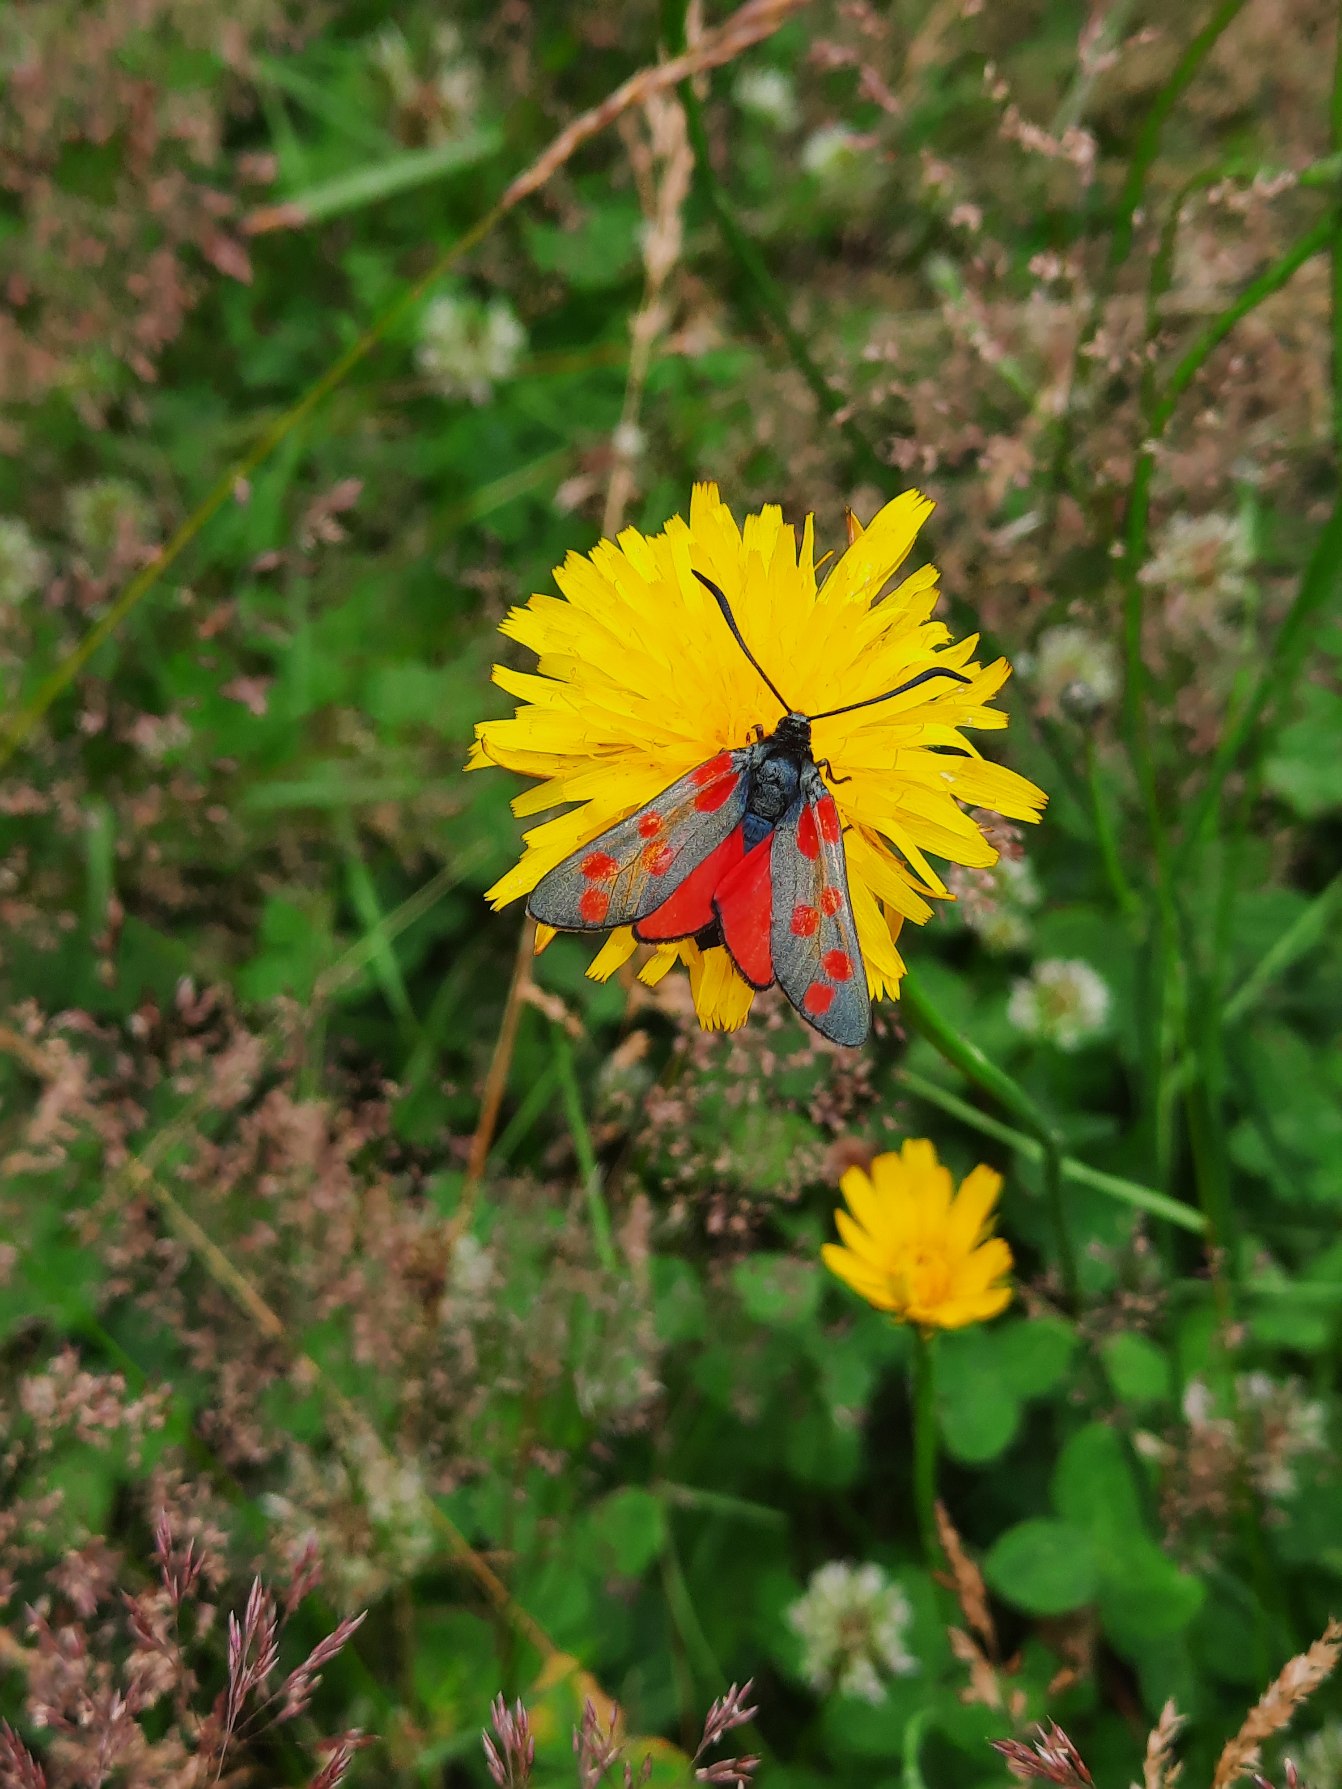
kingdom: Animalia
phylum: Arthropoda
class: Insecta
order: Lepidoptera
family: Zygaenidae
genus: Zygaena
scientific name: Zygaena filipendulae
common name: Seksplettet køllesværmer
